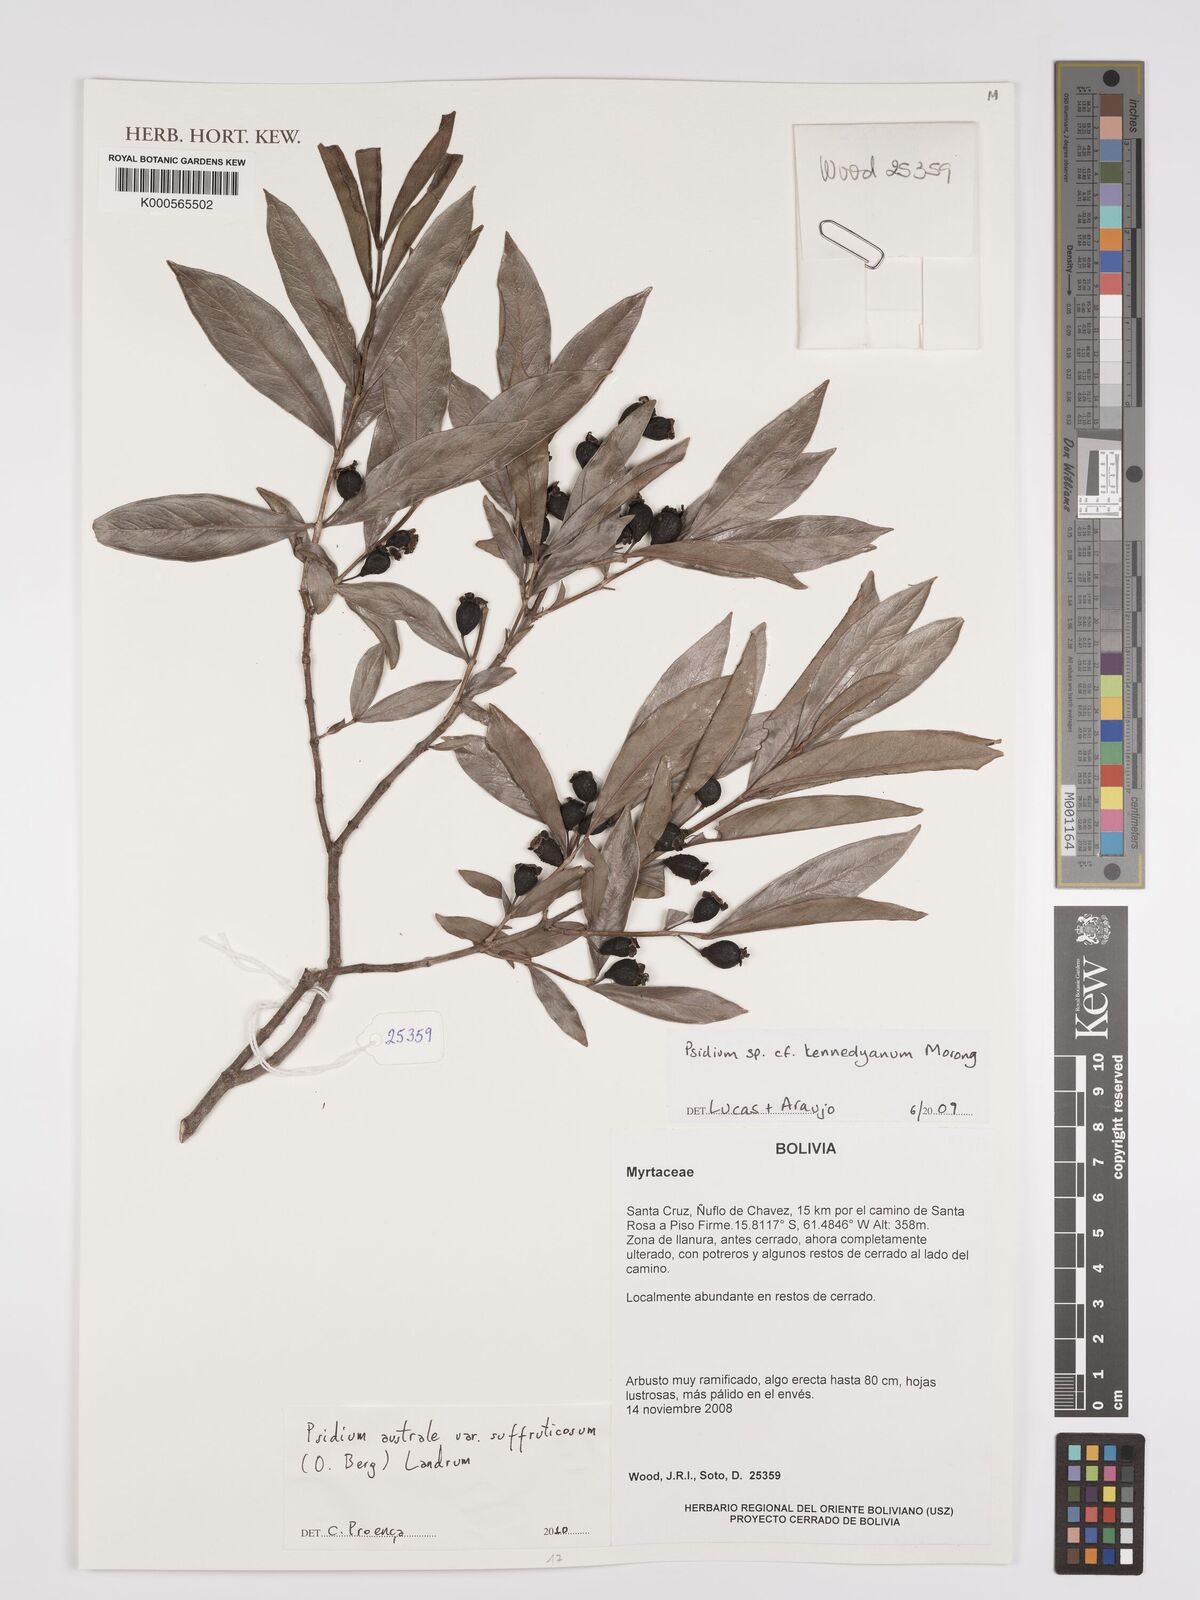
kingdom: Plantae
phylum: Tracheophyta
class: Magnoliopsida
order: Myrtales
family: Myrtaceae
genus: Psidium
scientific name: Psidium australe
